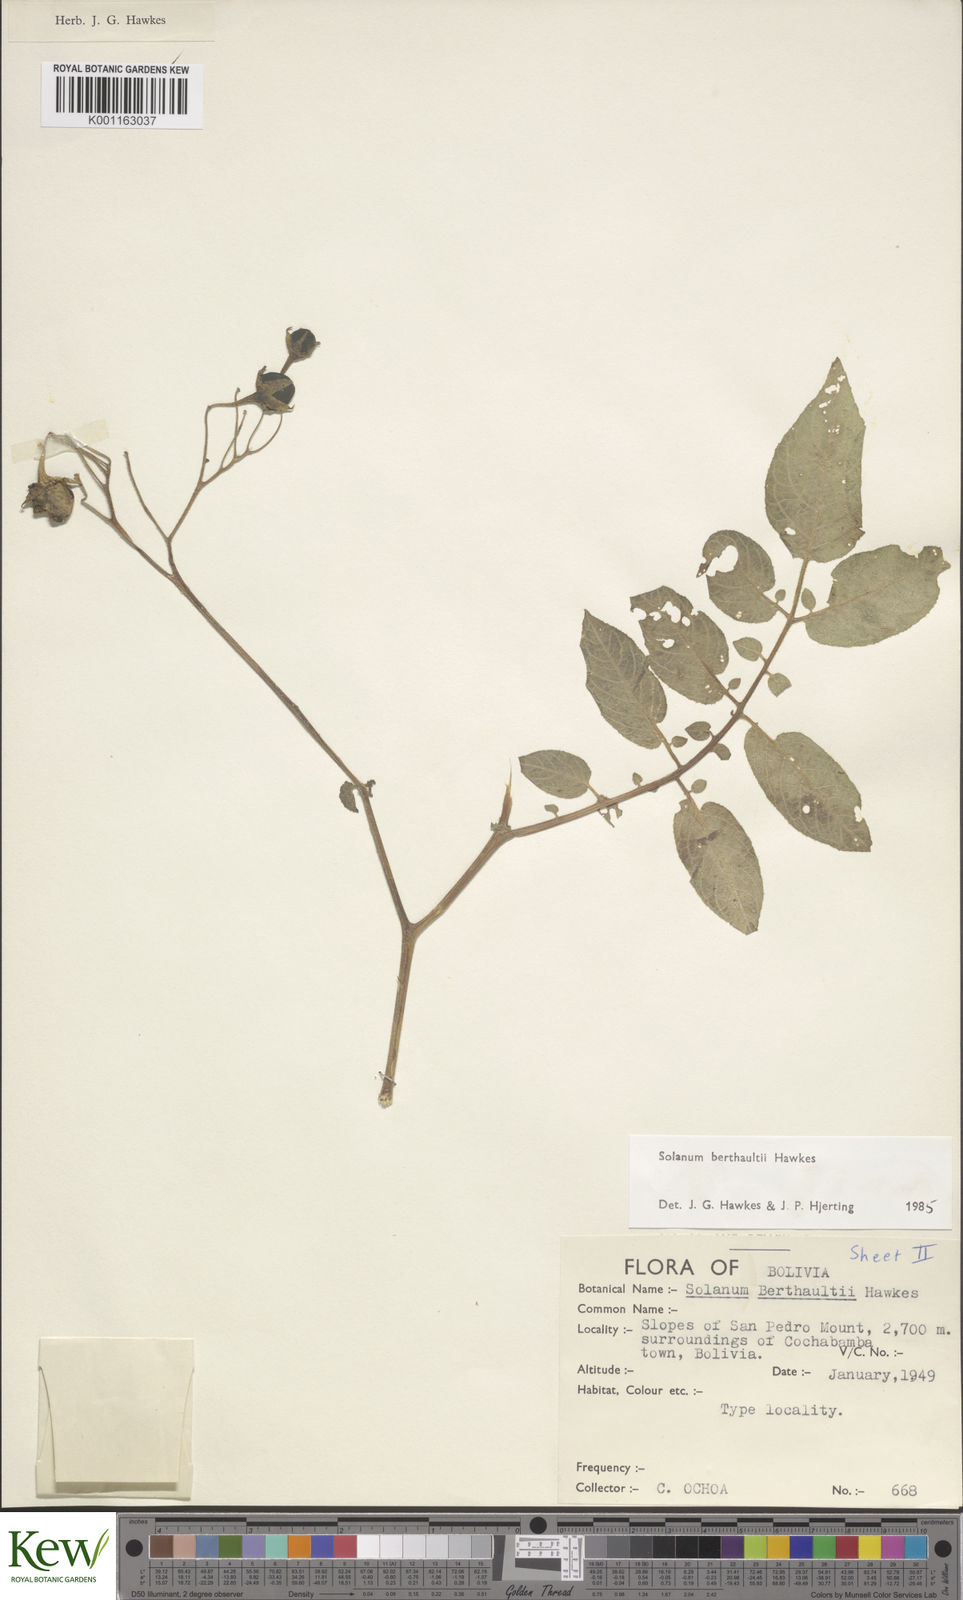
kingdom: Plantae
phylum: Tracheophyta
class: Magnoliopsida
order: Solanales
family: Solanaceae
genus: Solanum
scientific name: Solanum berthaultii
